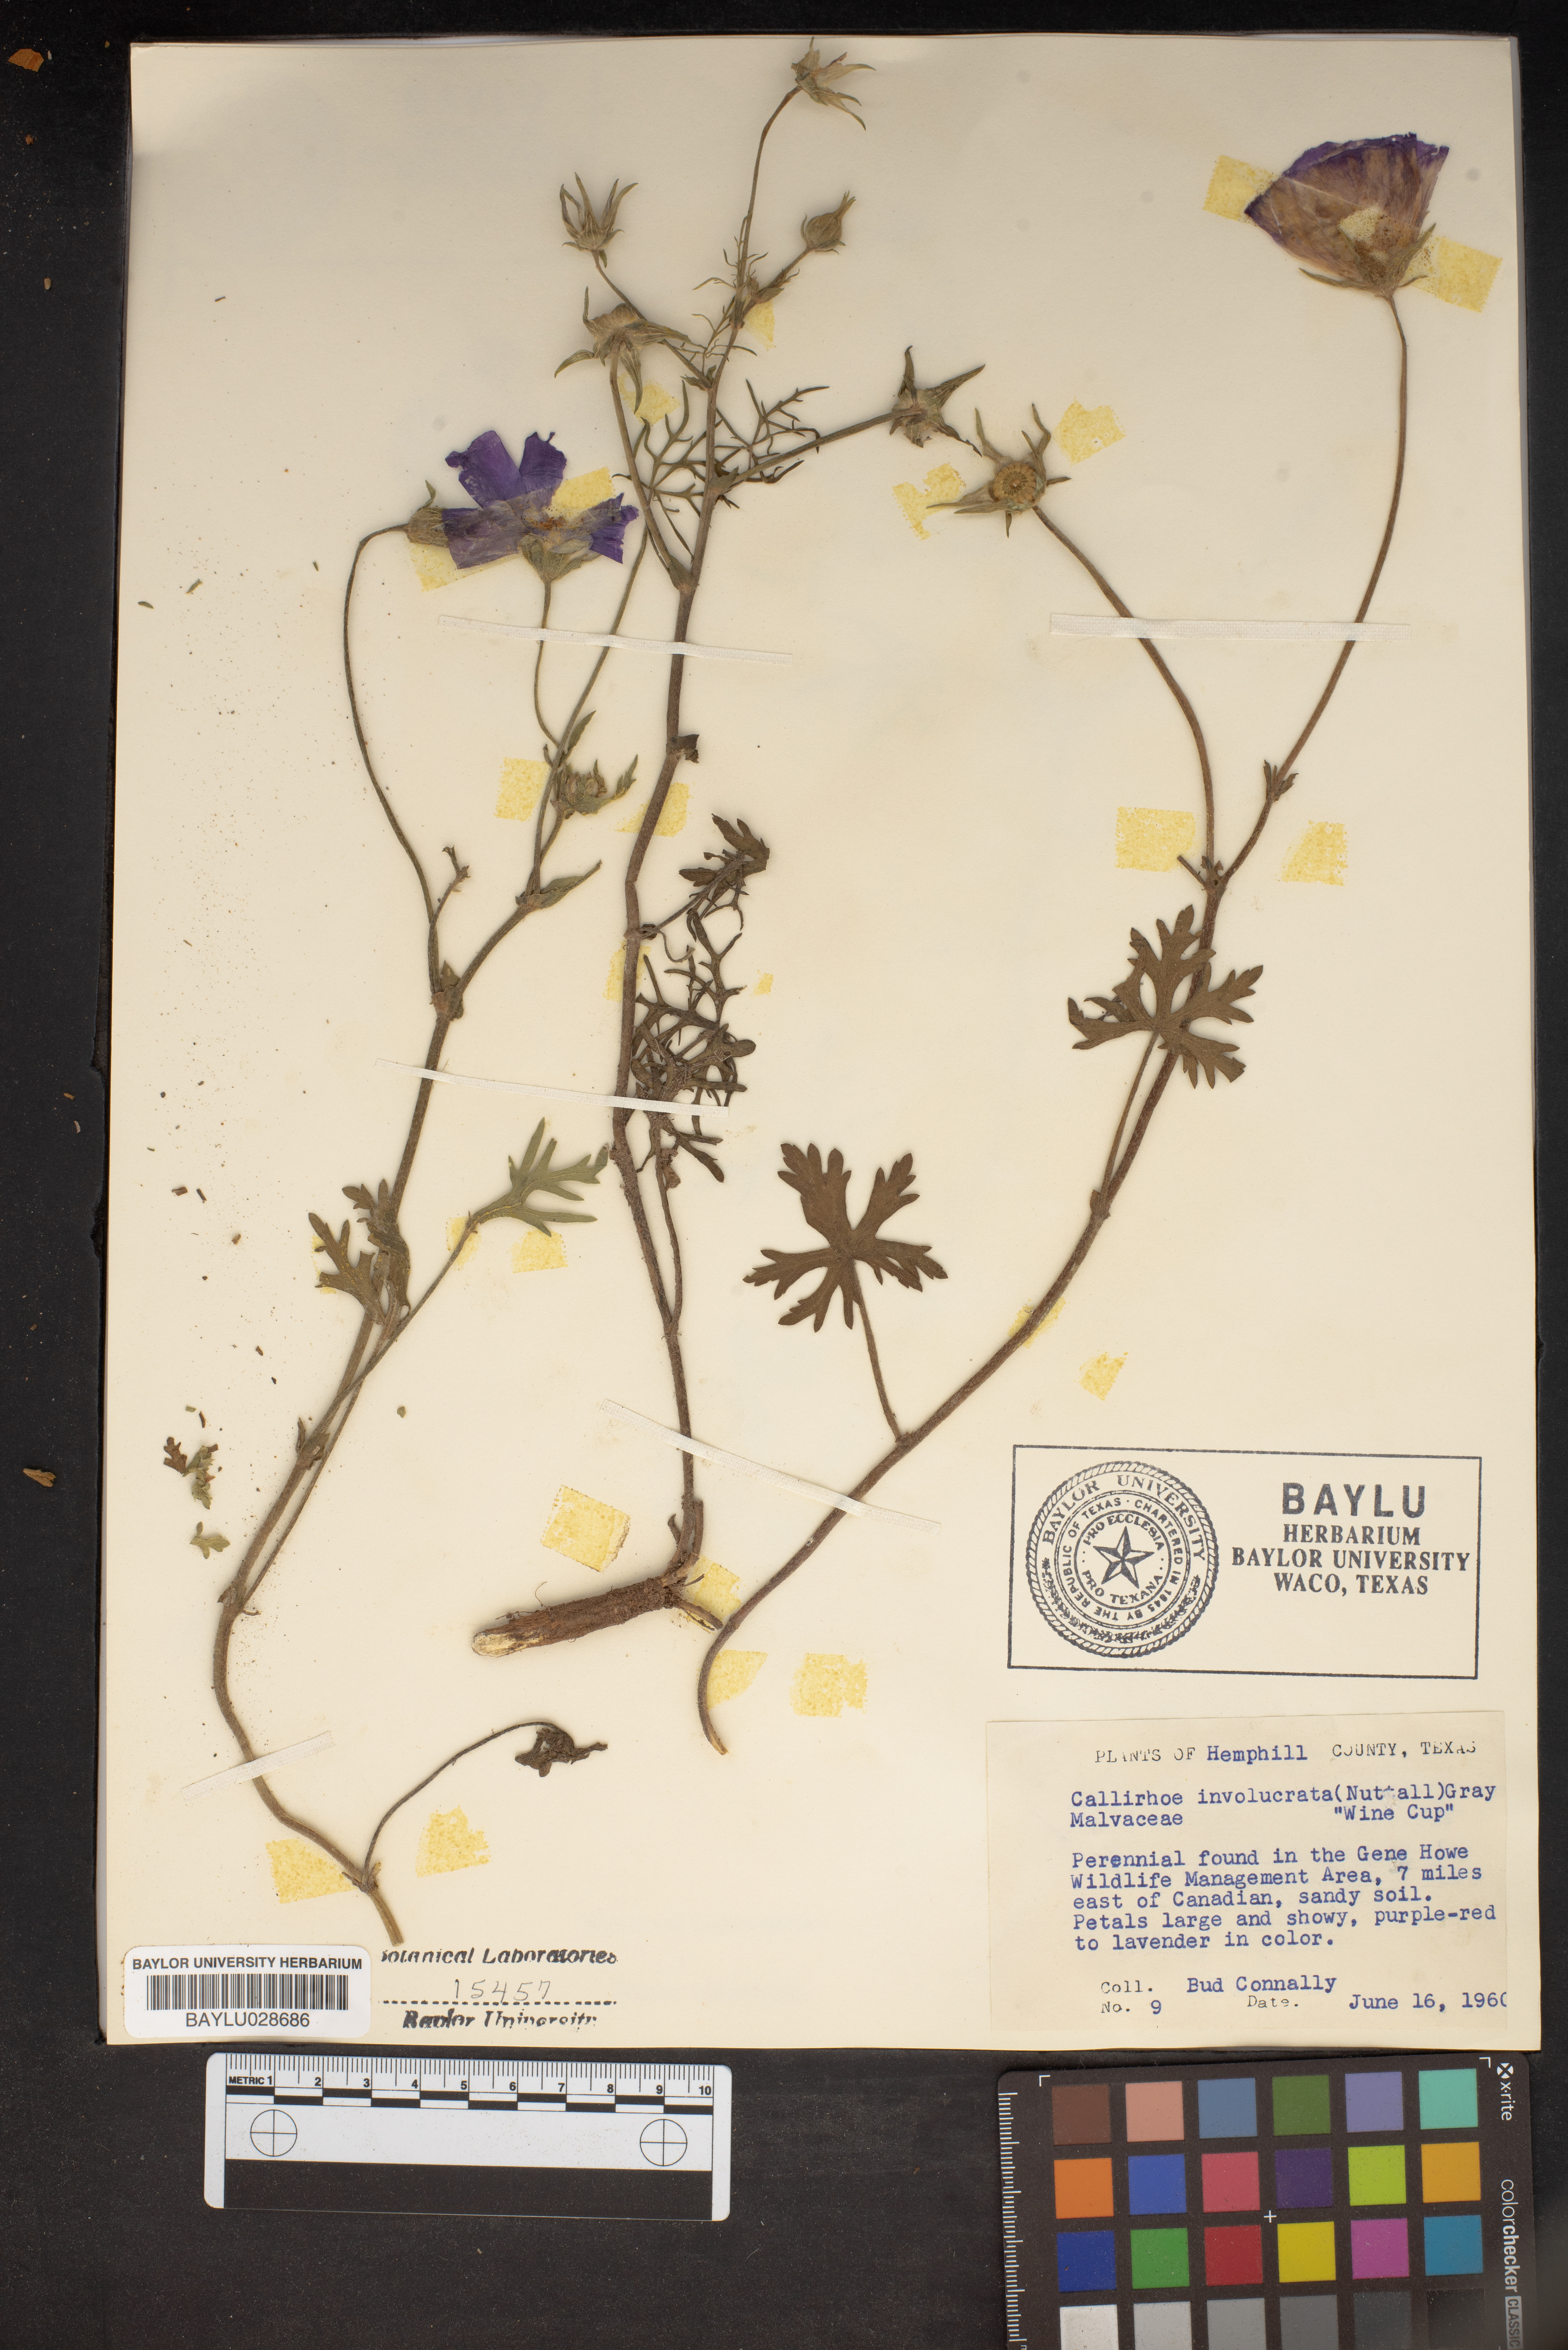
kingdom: Plantae
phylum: Tracheophyta
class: Magnoliopsida
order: Malvales
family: Malvaceae
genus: Callirhoe
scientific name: Callirhoe involucrata
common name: Purple poppy-mallow
